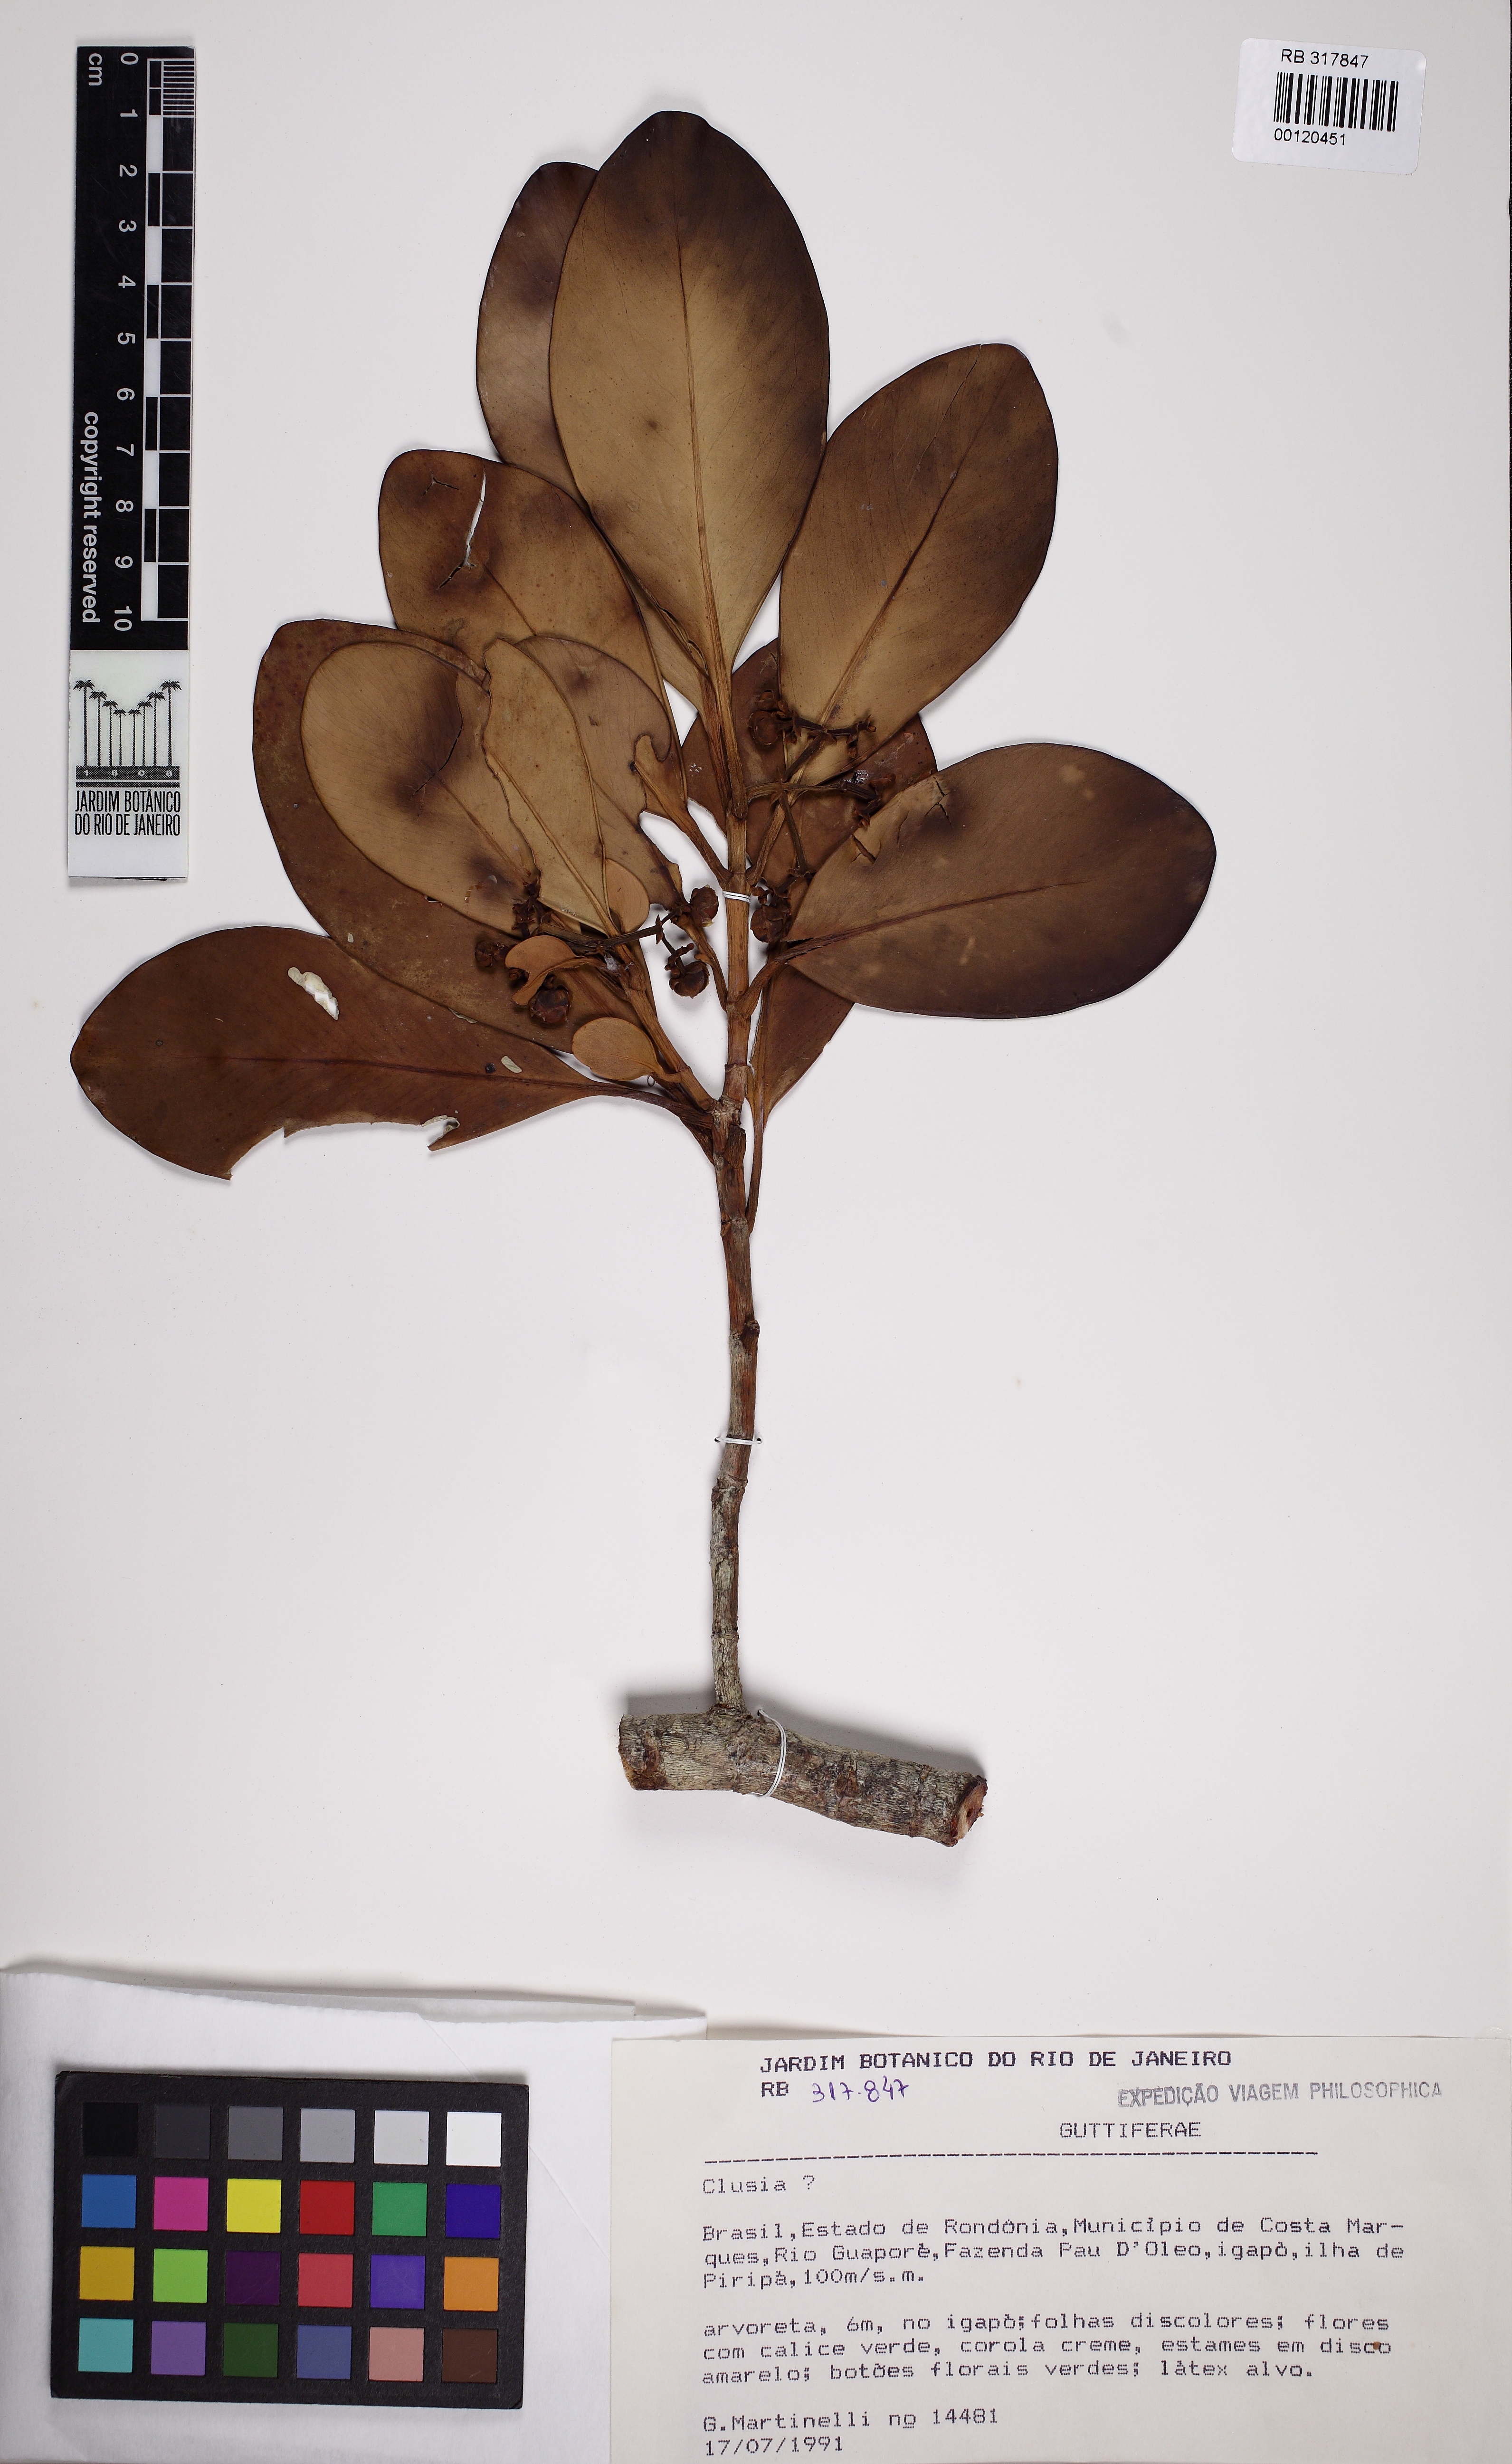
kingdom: Plantae
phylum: Tracheophyta
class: Magnoliopsida
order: Malpighiales
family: Clusiaceae
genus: Clusia
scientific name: Clusia microstemon
